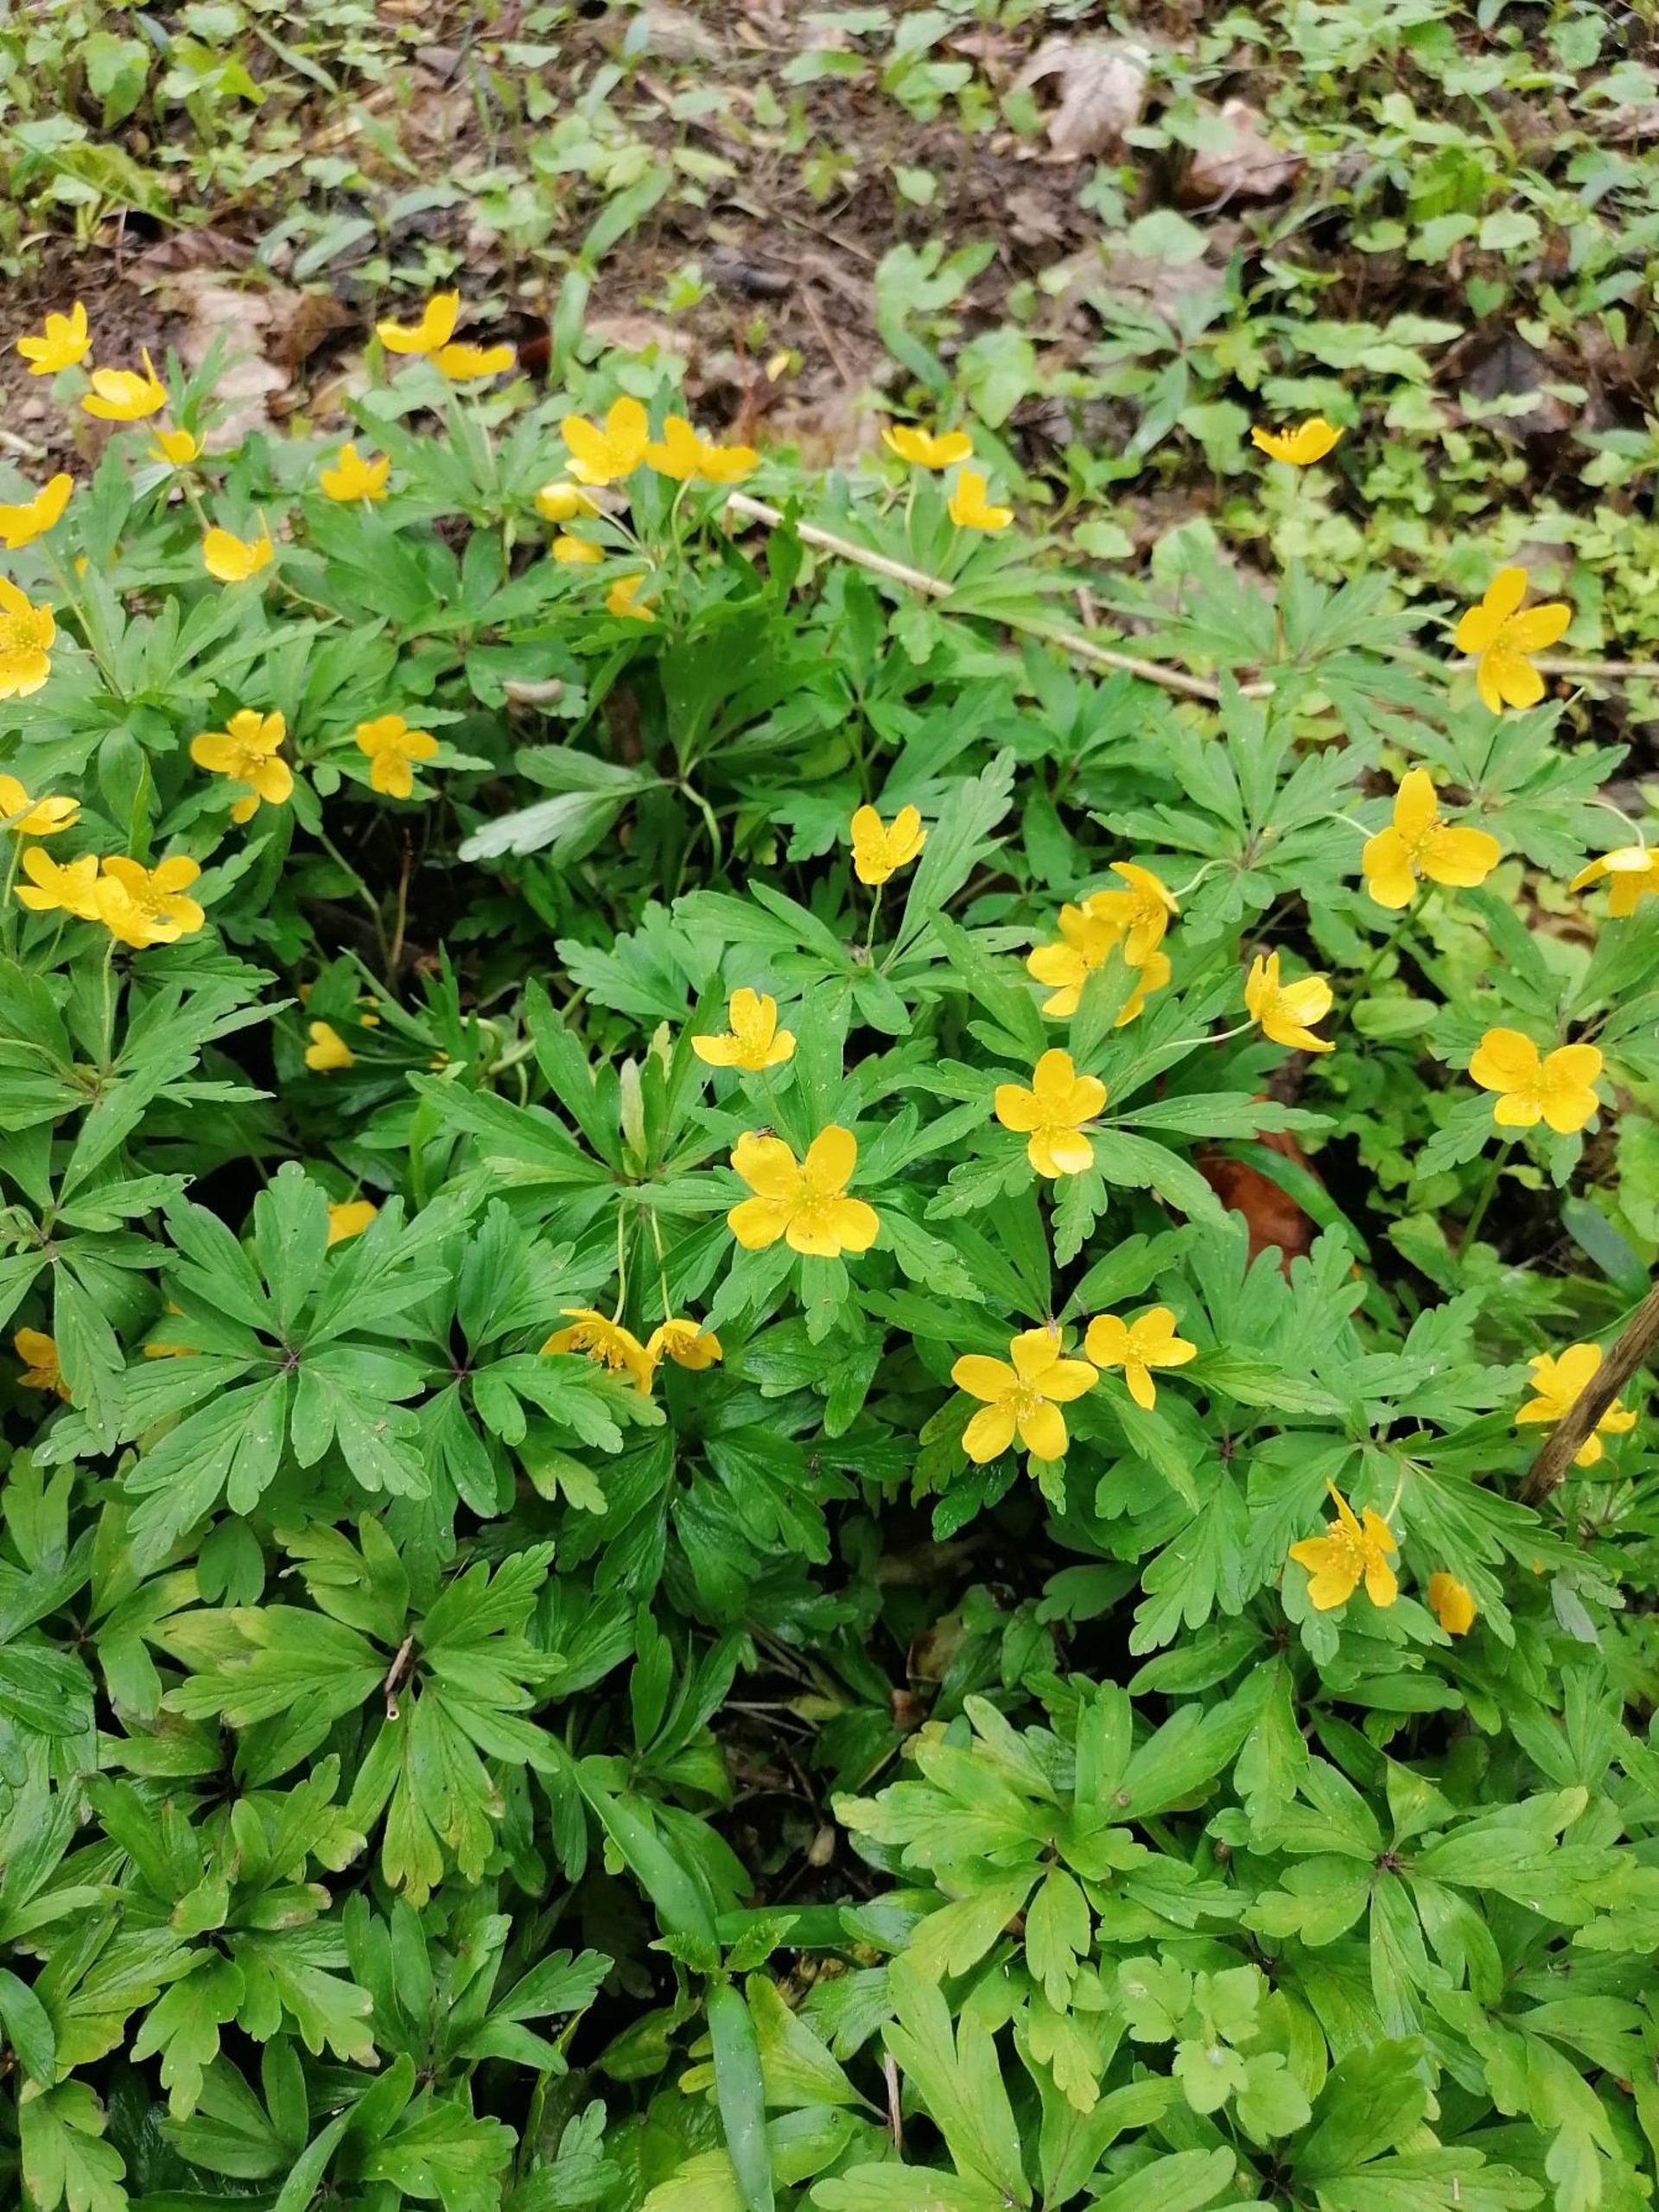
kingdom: Plantae
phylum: Tracheophyta
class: Magnoliopsida
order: Ranunculales
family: Ranunculaceae
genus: Anemone
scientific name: Anemone ranunculoides
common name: Gul anemone
